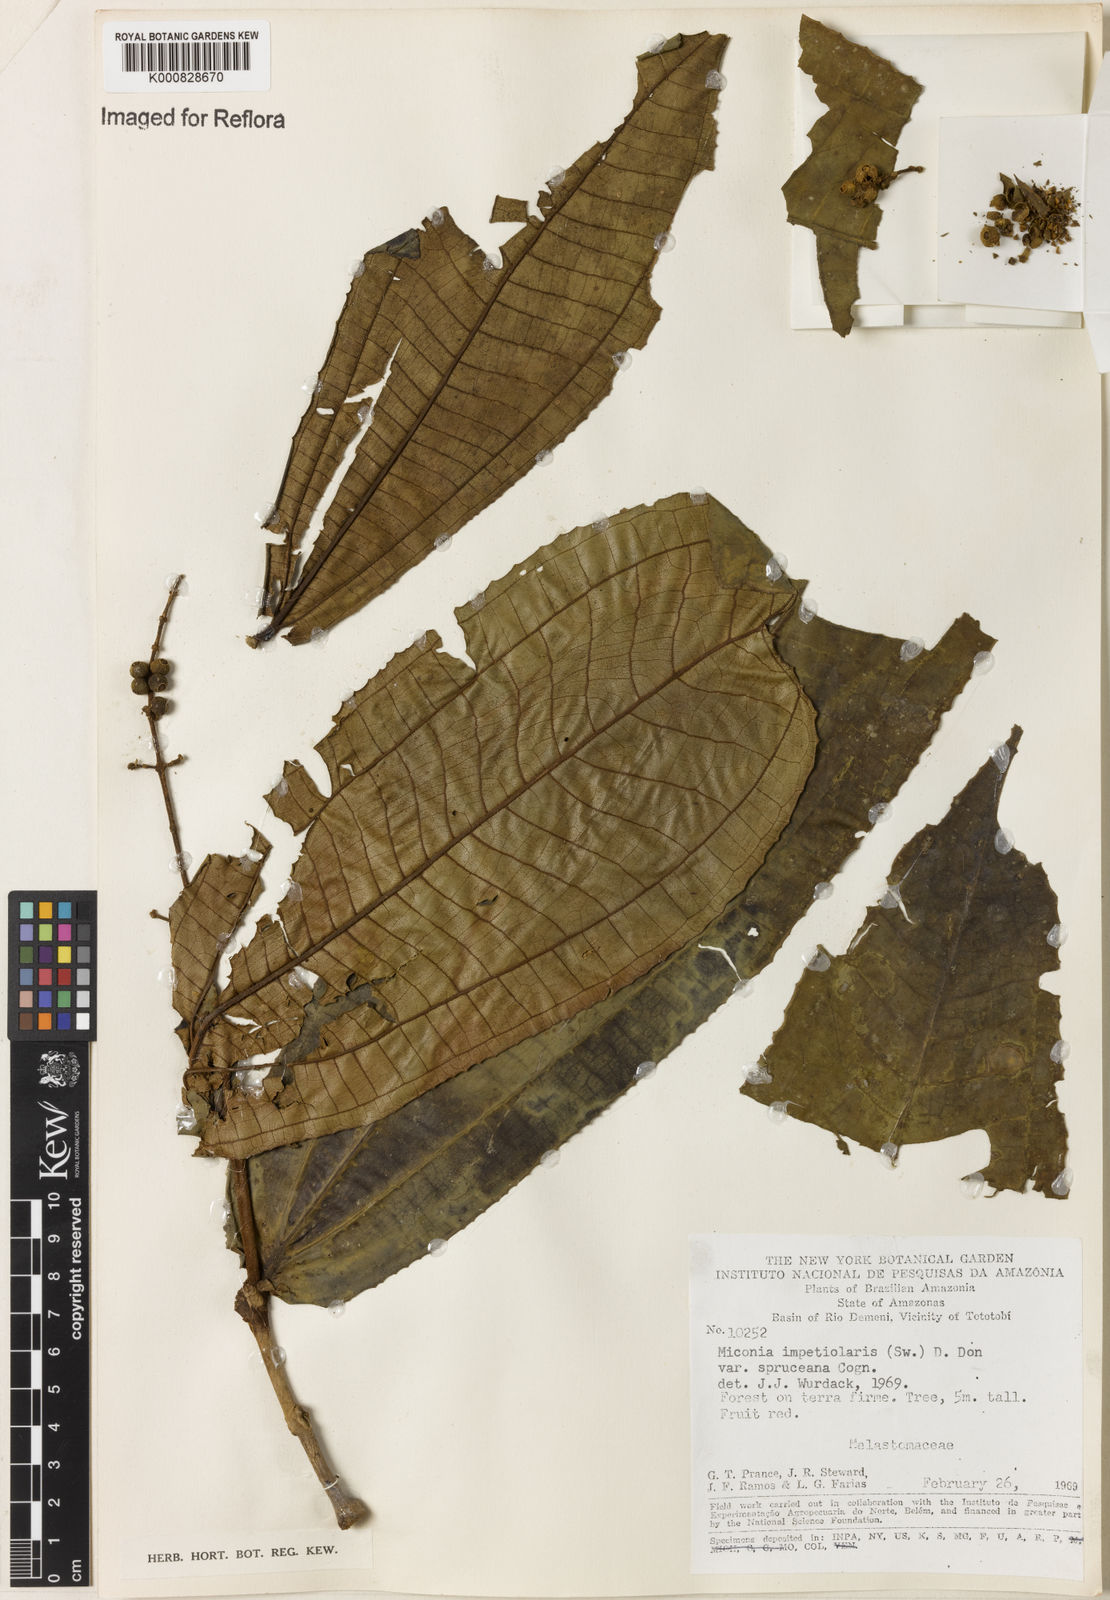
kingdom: Plantae
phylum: Tracheophyta
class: Magnoliopsida
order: Myrtales
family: Melastomataceae
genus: Miconia
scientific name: Miconia impetiolaris
